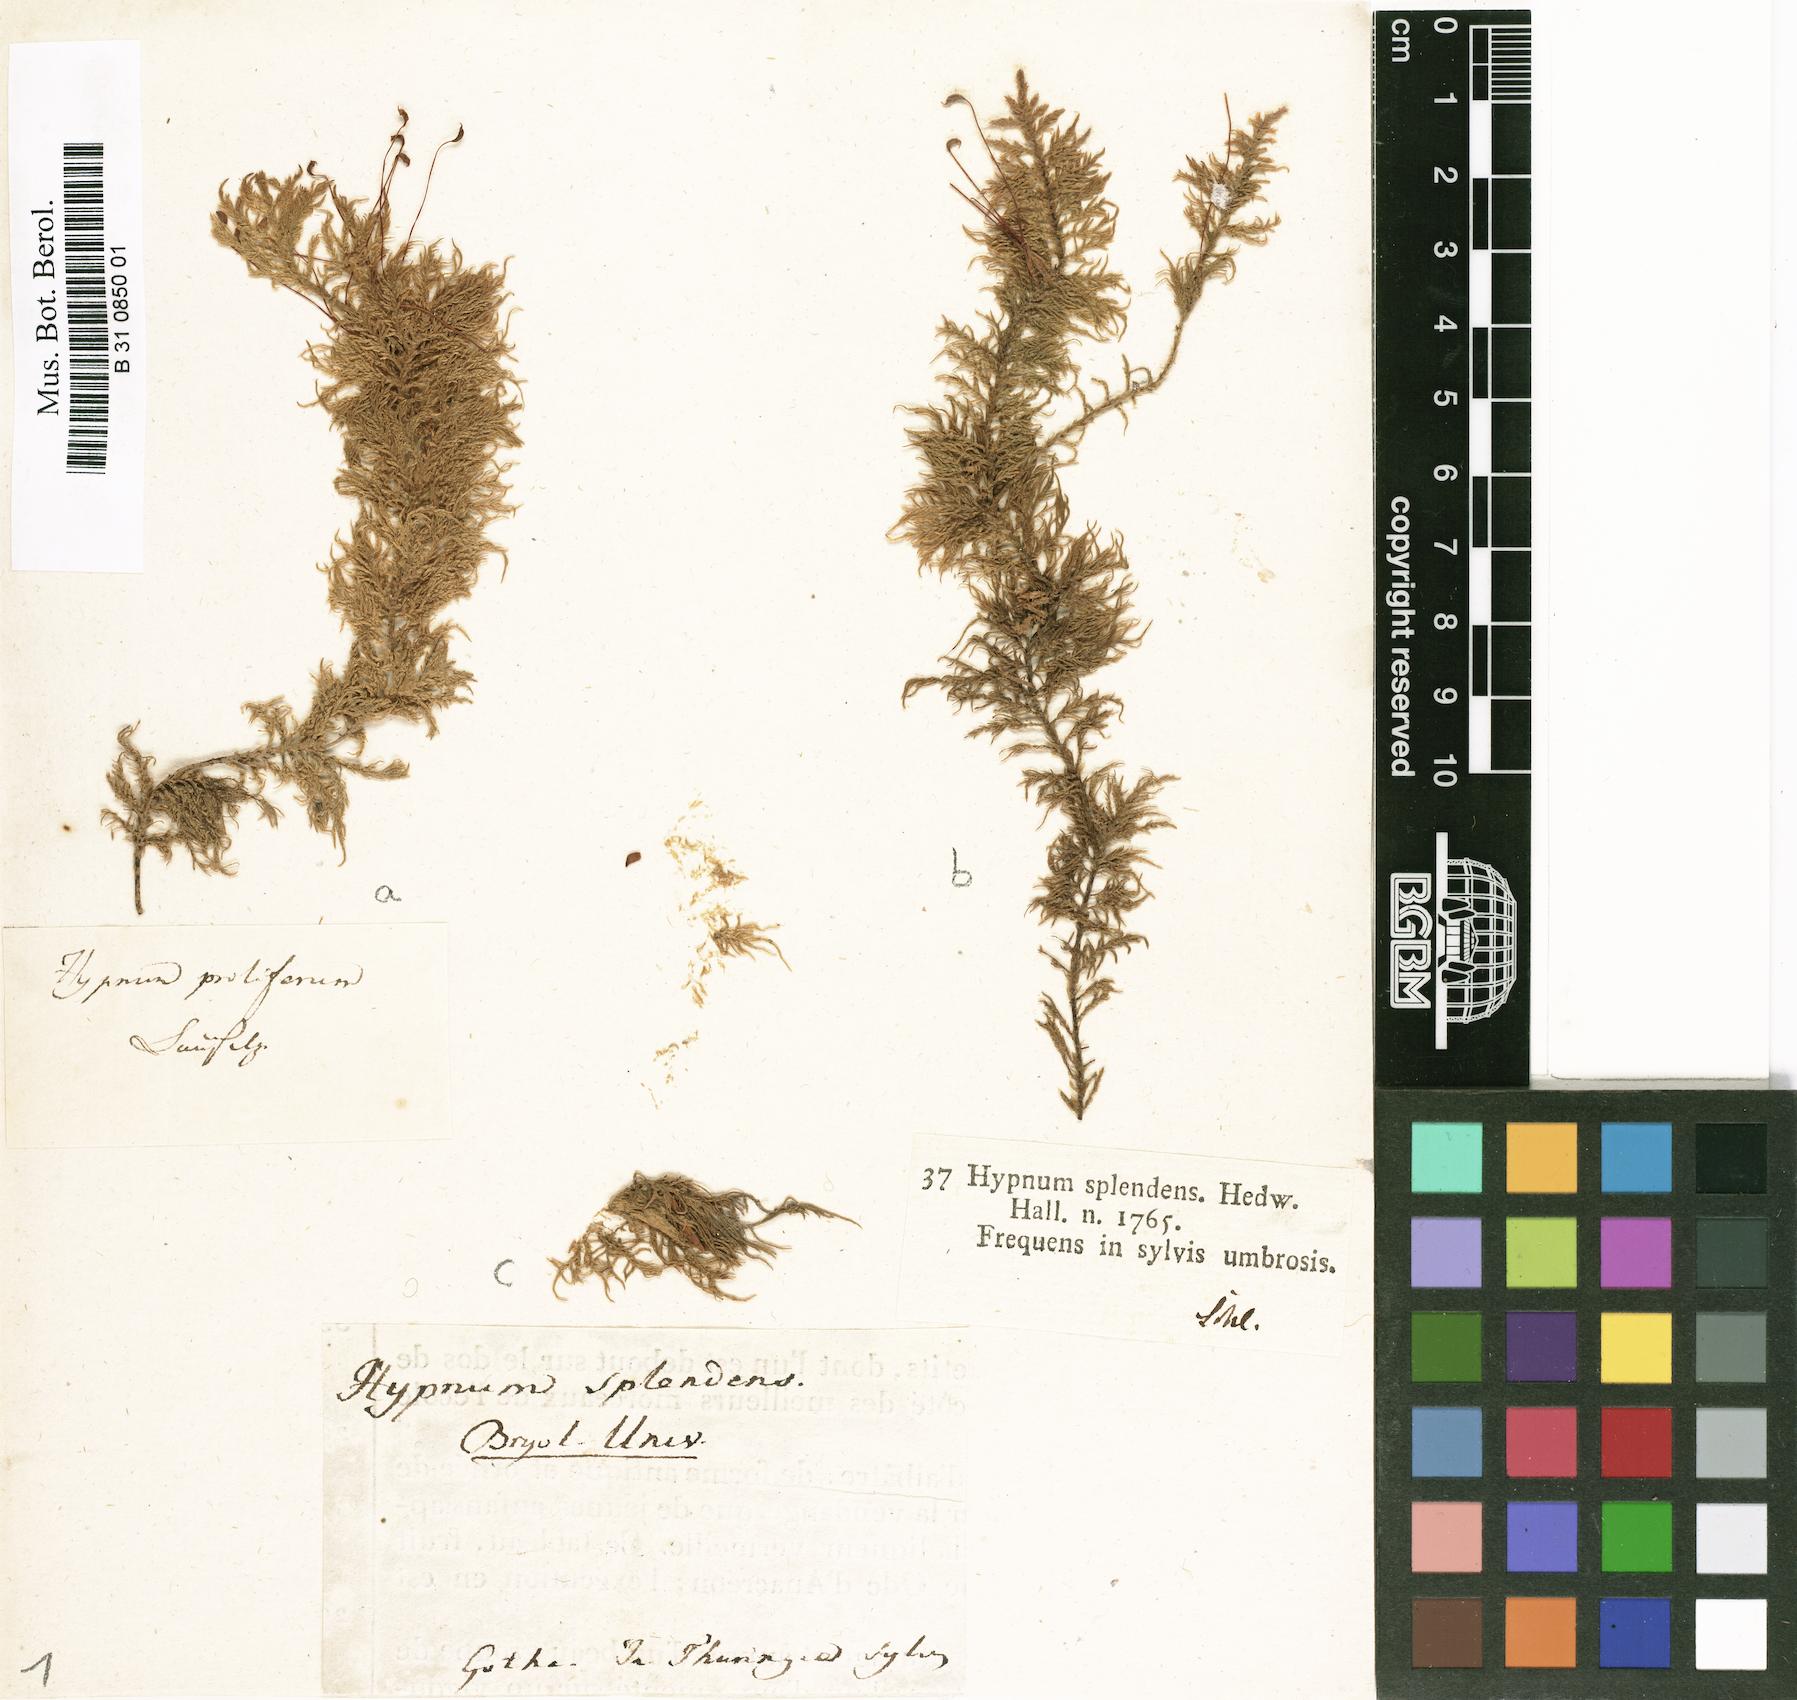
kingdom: Plantae
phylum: Bryophyta
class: Bryopsida
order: Hypnales
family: Hylocomiaceae
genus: Hylocomium
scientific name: Hylocomium splendens
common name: Stairstep moss
